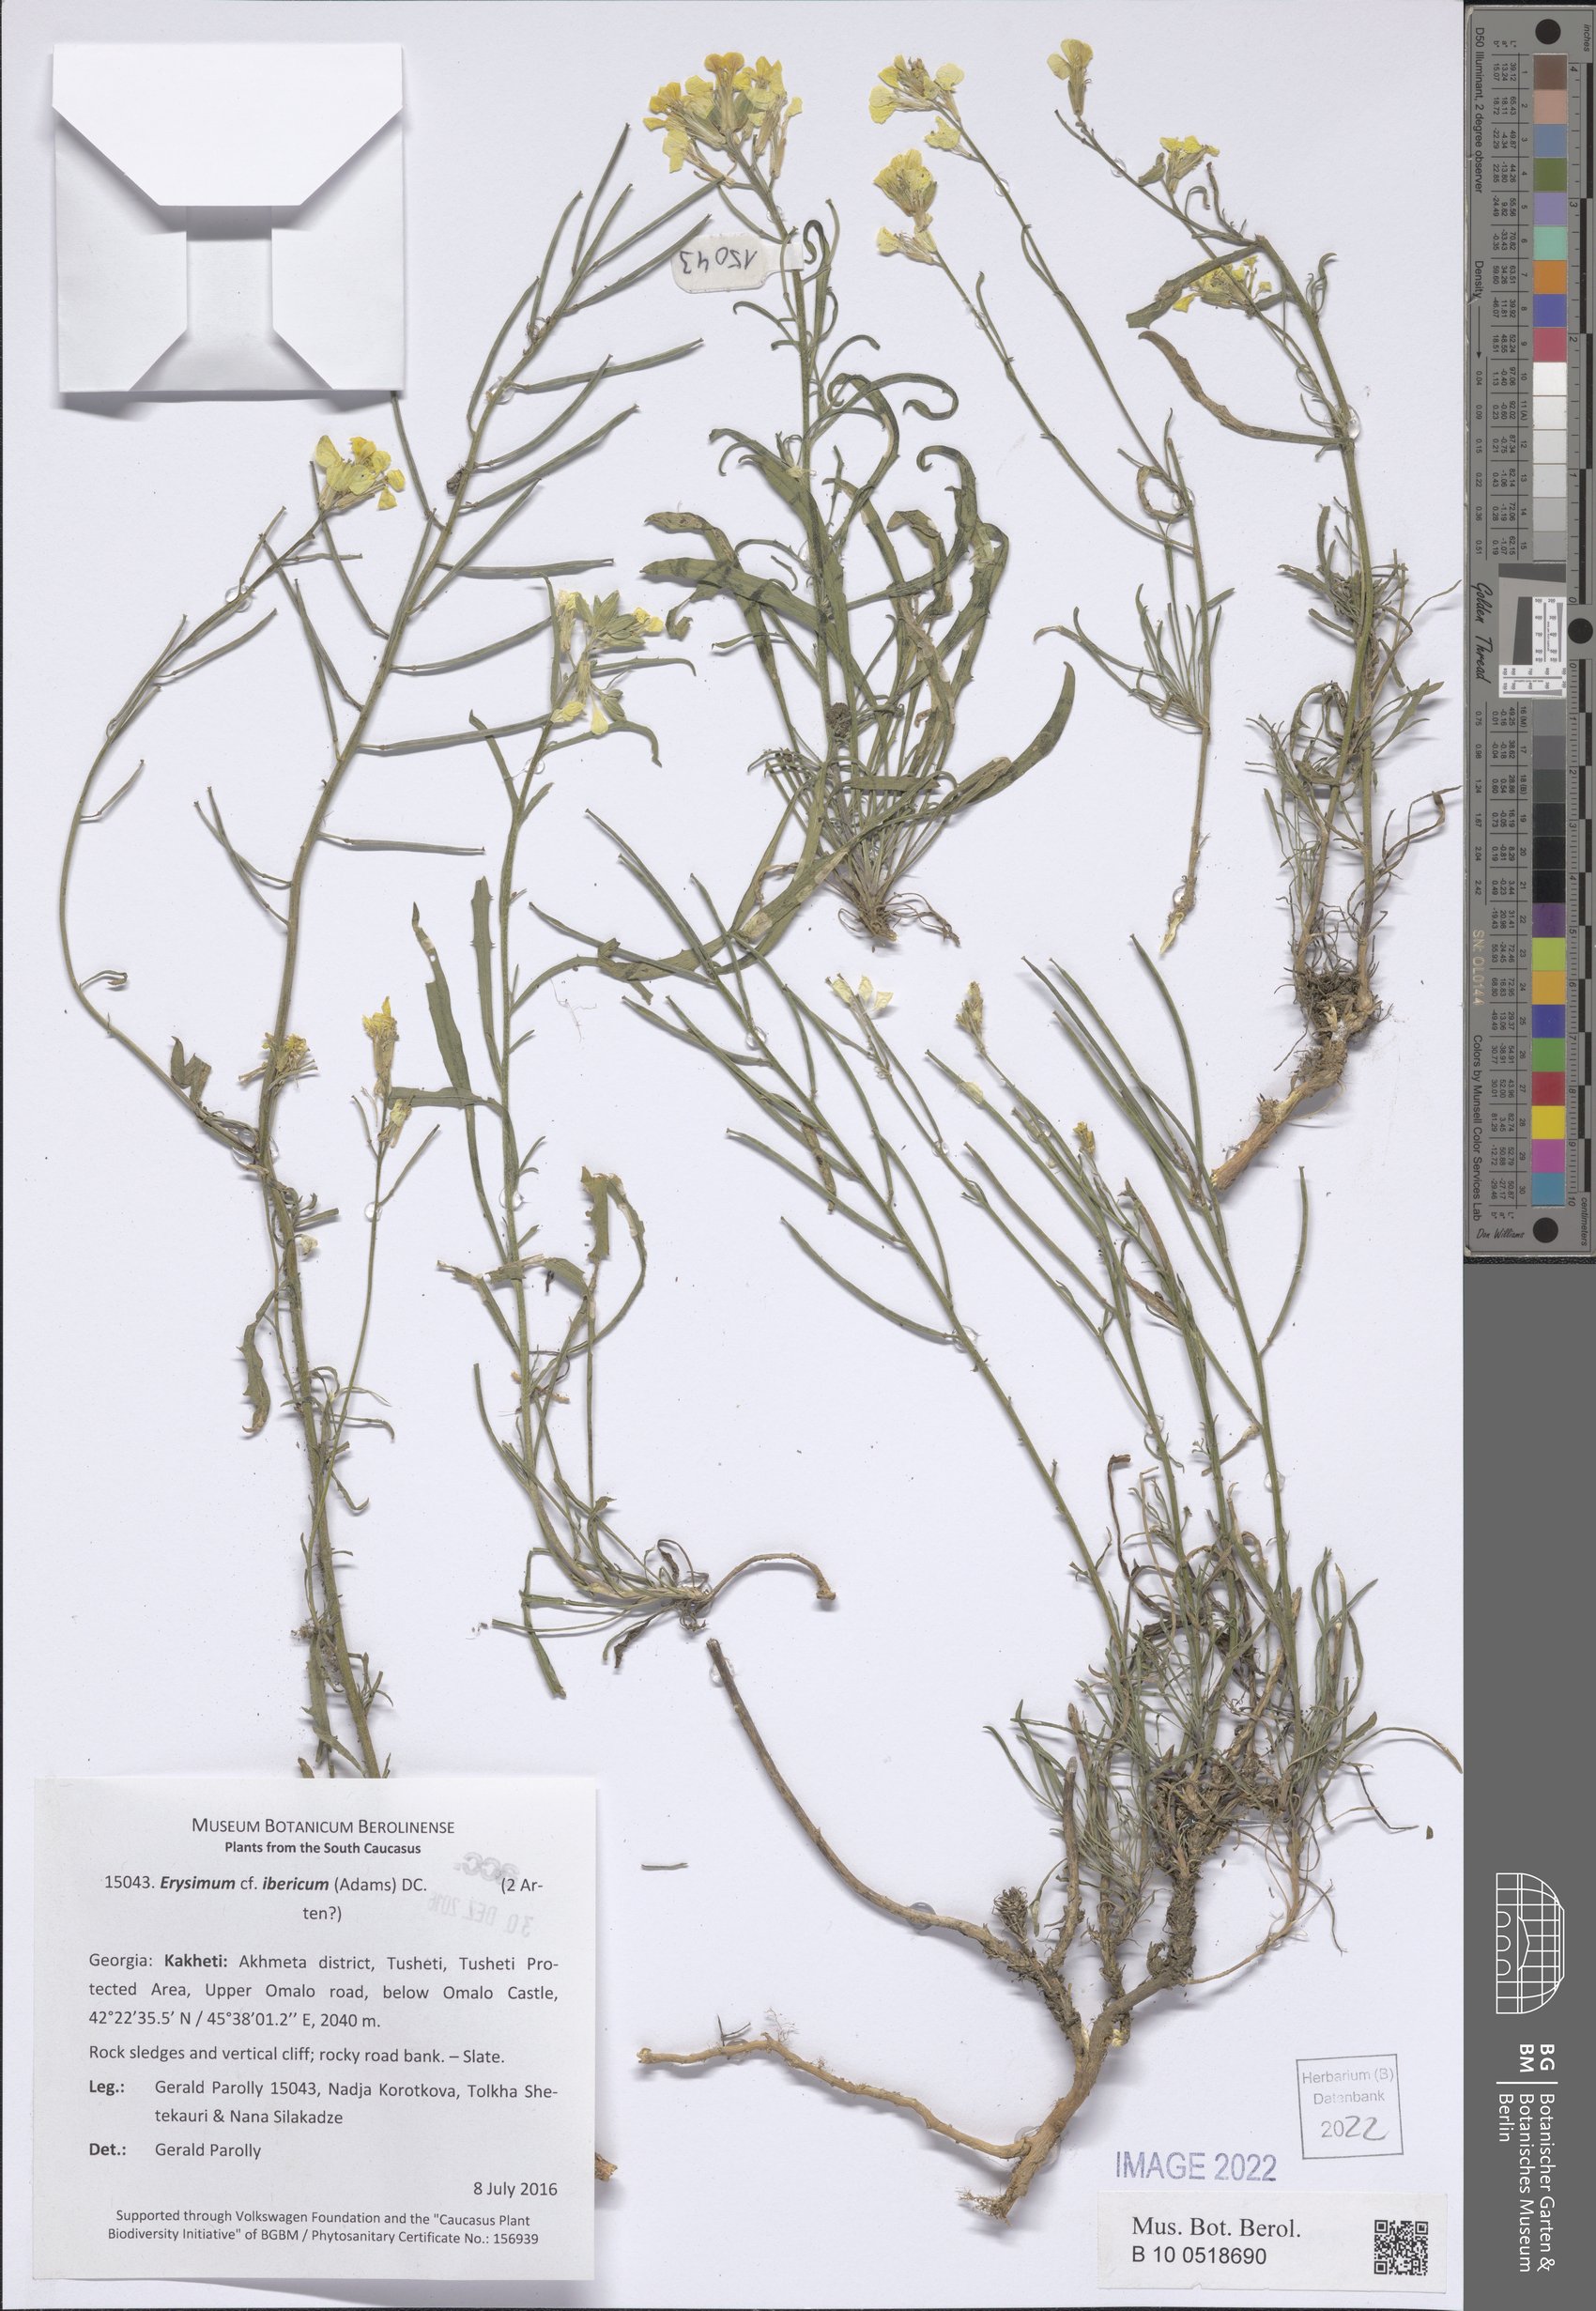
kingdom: Plantae
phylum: Tracheophyta
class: Magnoliopsida
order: Brassicales
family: Brassicaceae
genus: Erysimum
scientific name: Erysimum ibericum
